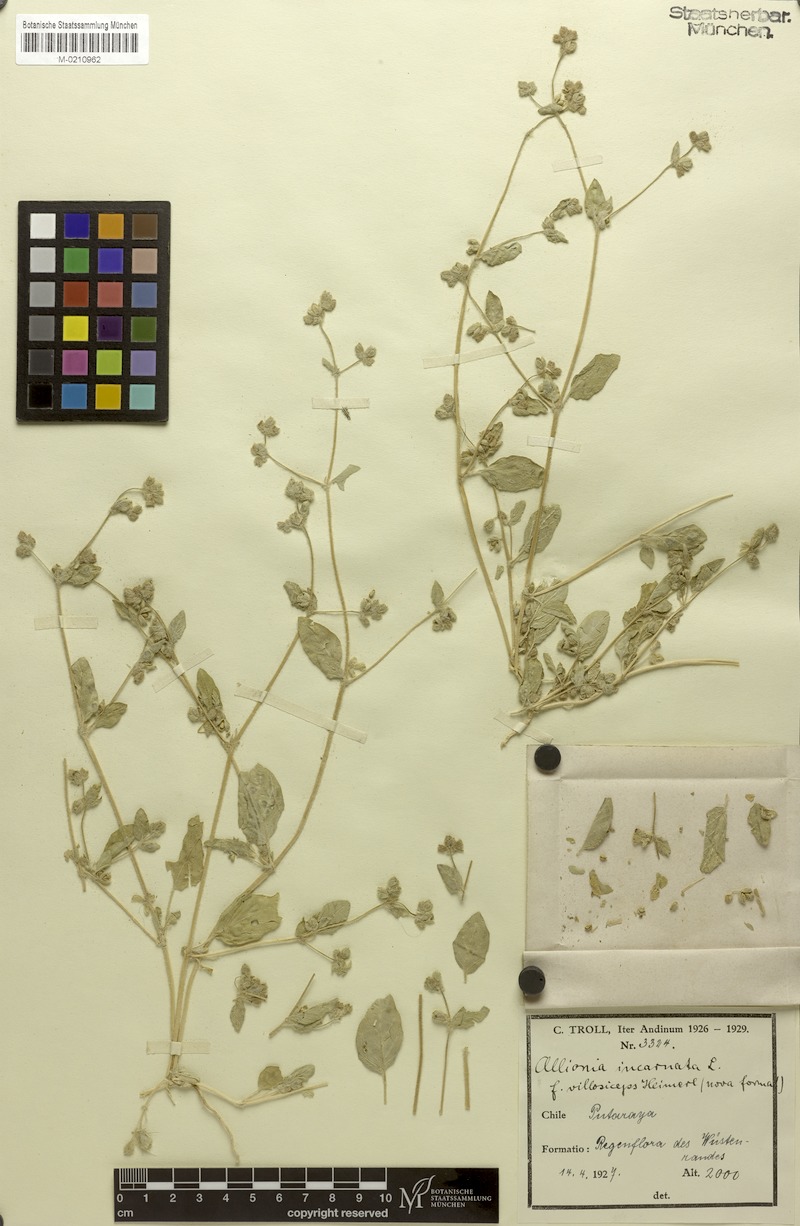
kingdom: Plantae
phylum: Tracheophyta
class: Magnoliopsida
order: Caryophyllales
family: Nyctaginaceae
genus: Allionia
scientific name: Allionia incarnata
